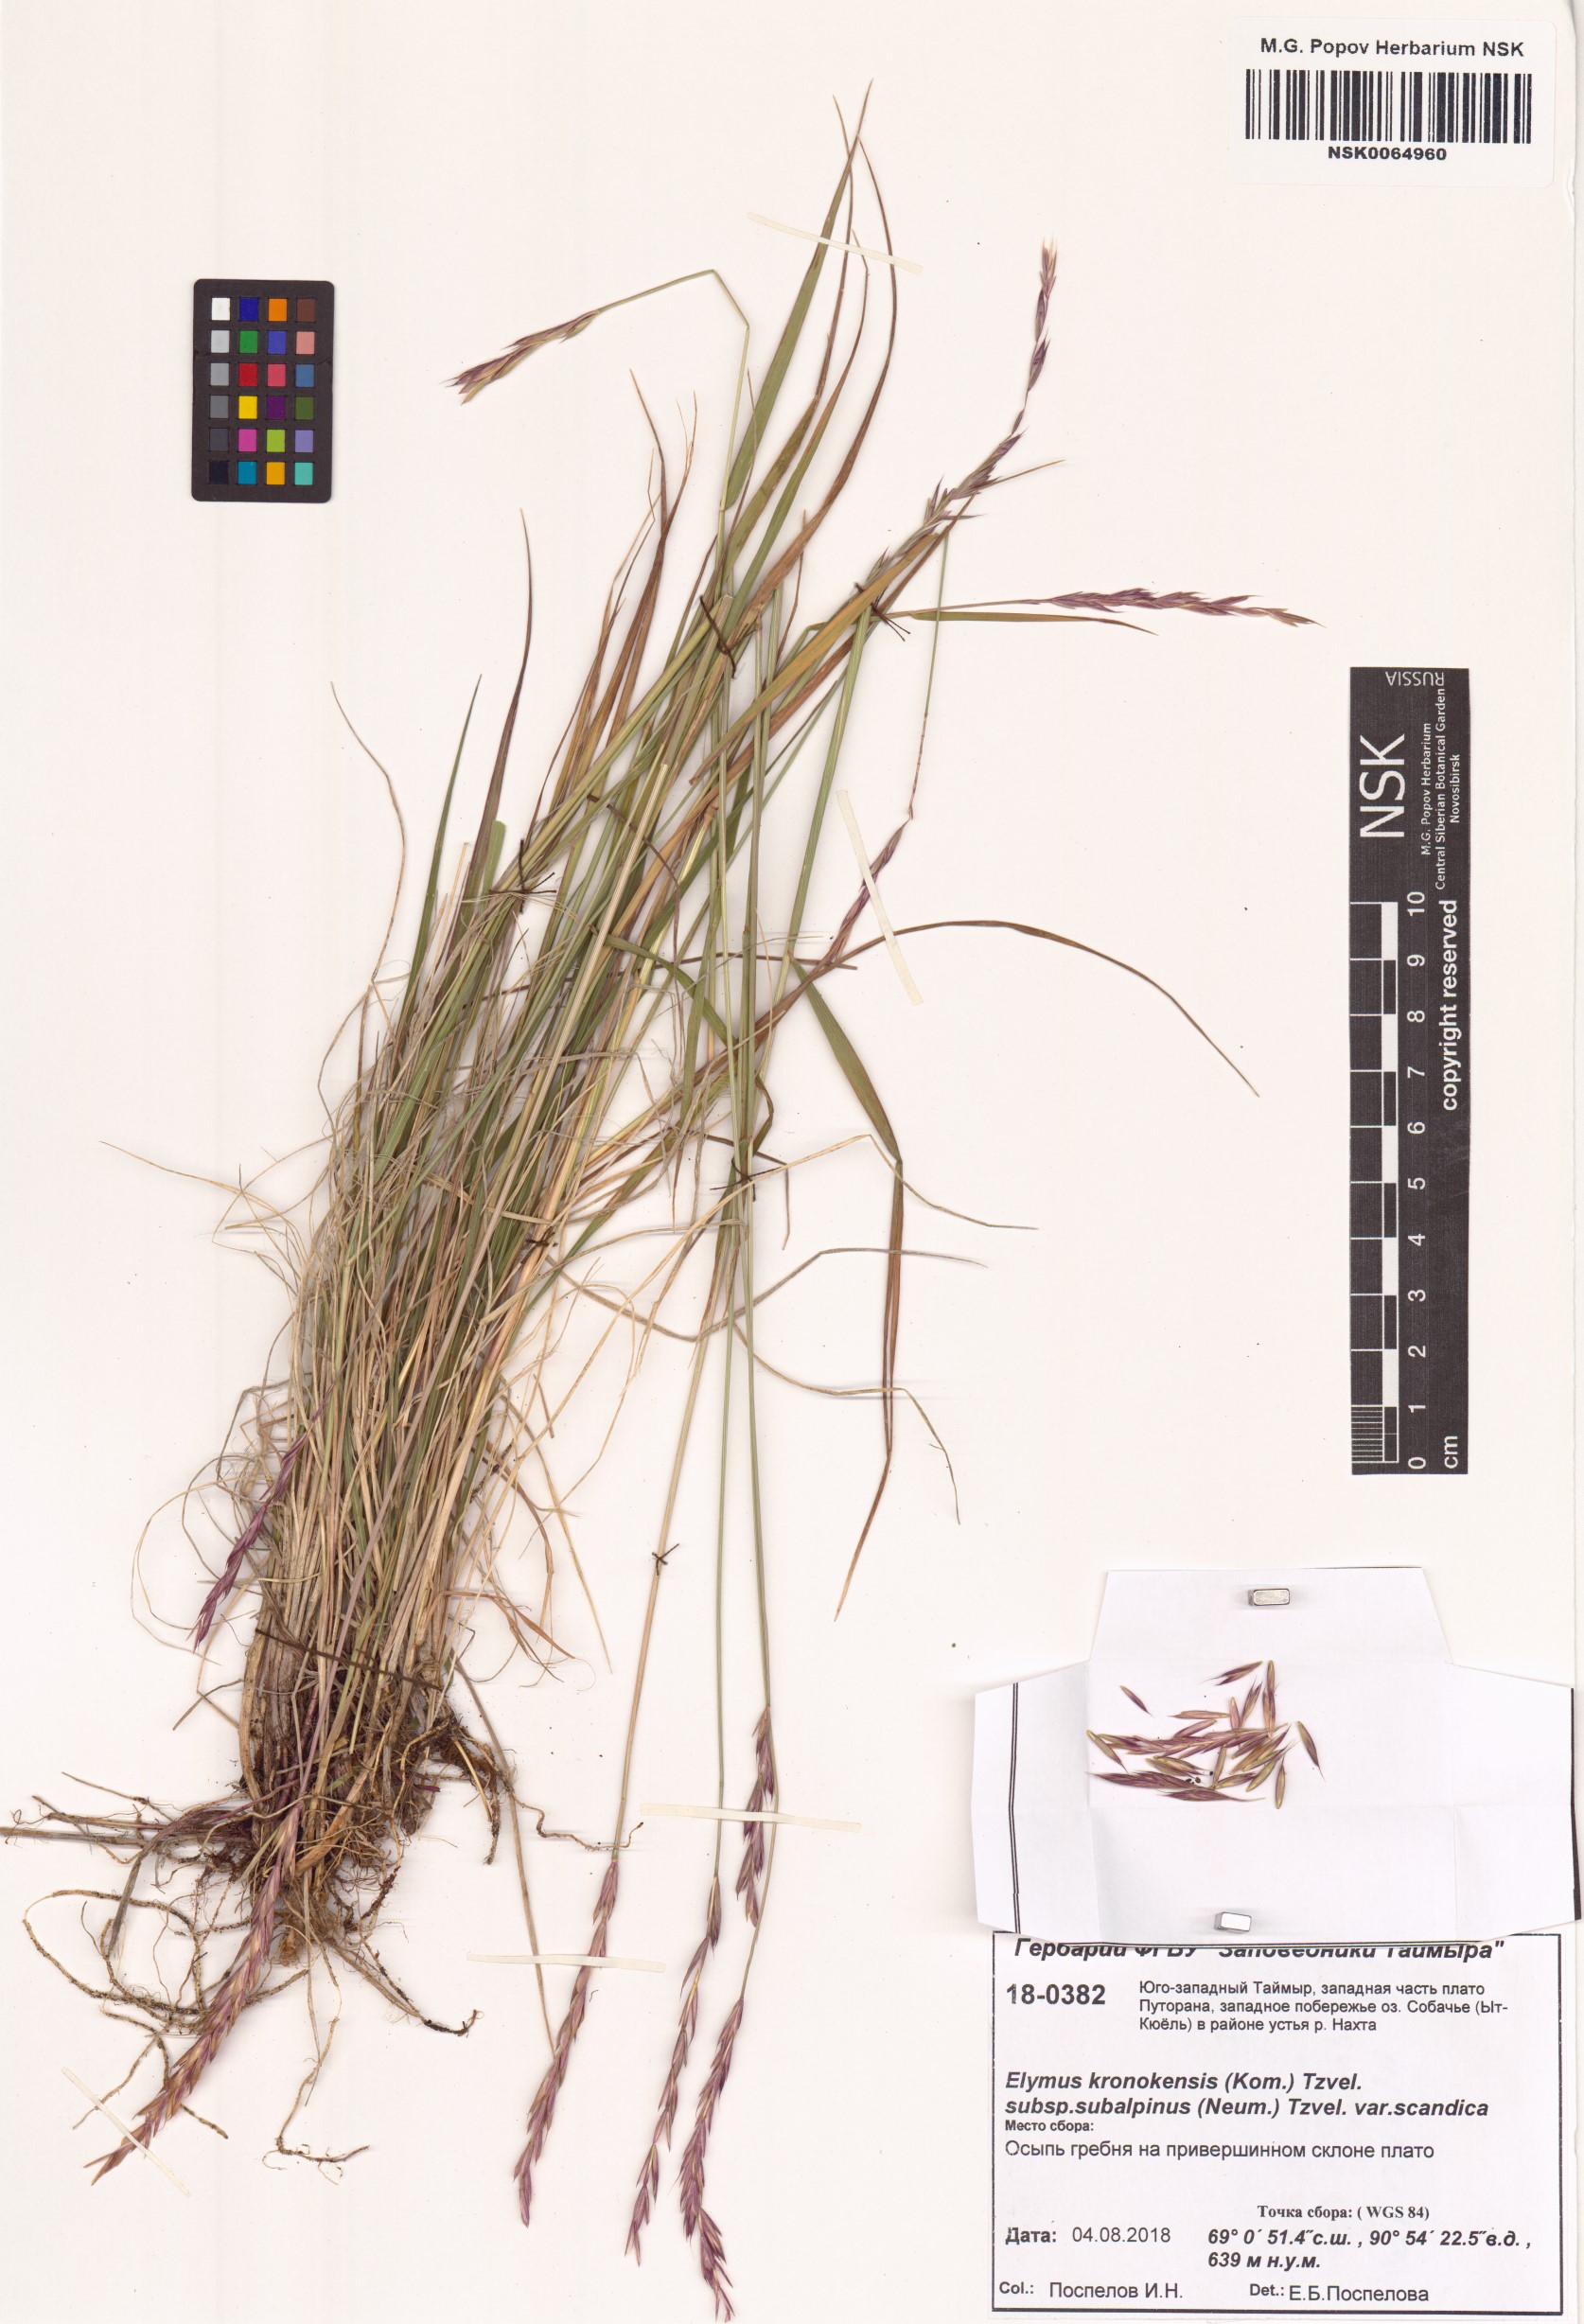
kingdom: Plantae
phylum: Tracheophyta
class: Liliopsida
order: Poales
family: Poaceae
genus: Elymus
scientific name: Elymus macrourus
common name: Northern wheatgrass
